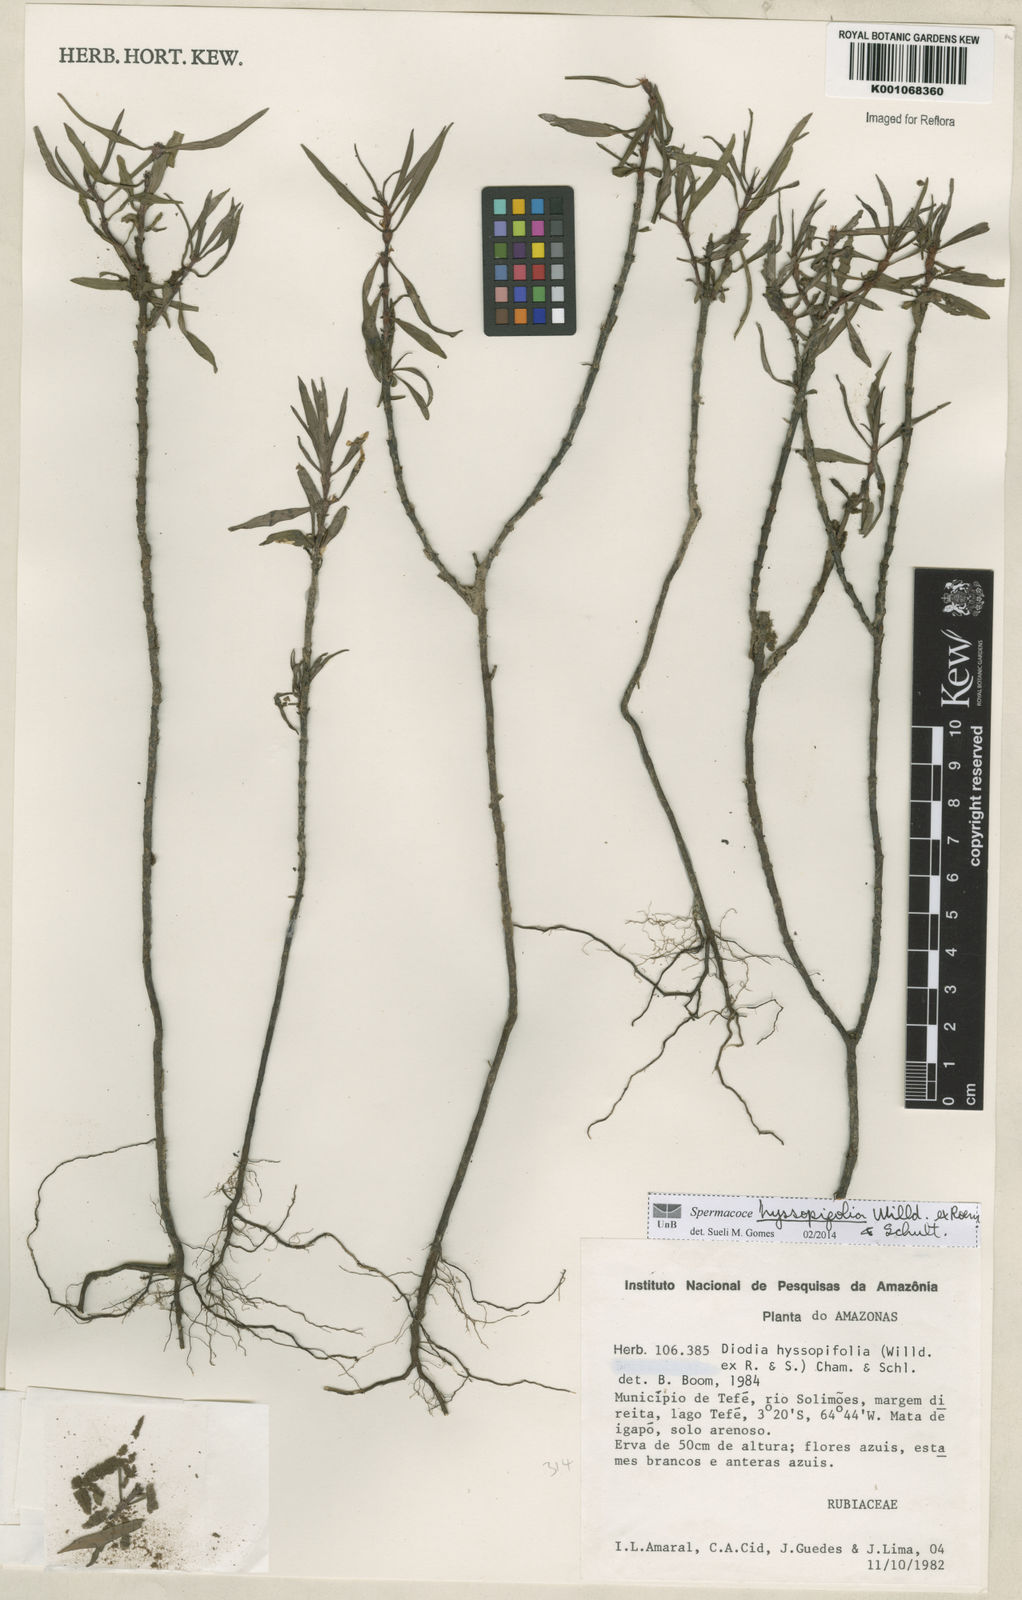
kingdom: Plantae
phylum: Tracheophyta
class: Magnoliopsida
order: Gentianales
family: Rubiaceae
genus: Spermacoce
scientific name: Spermacoce
